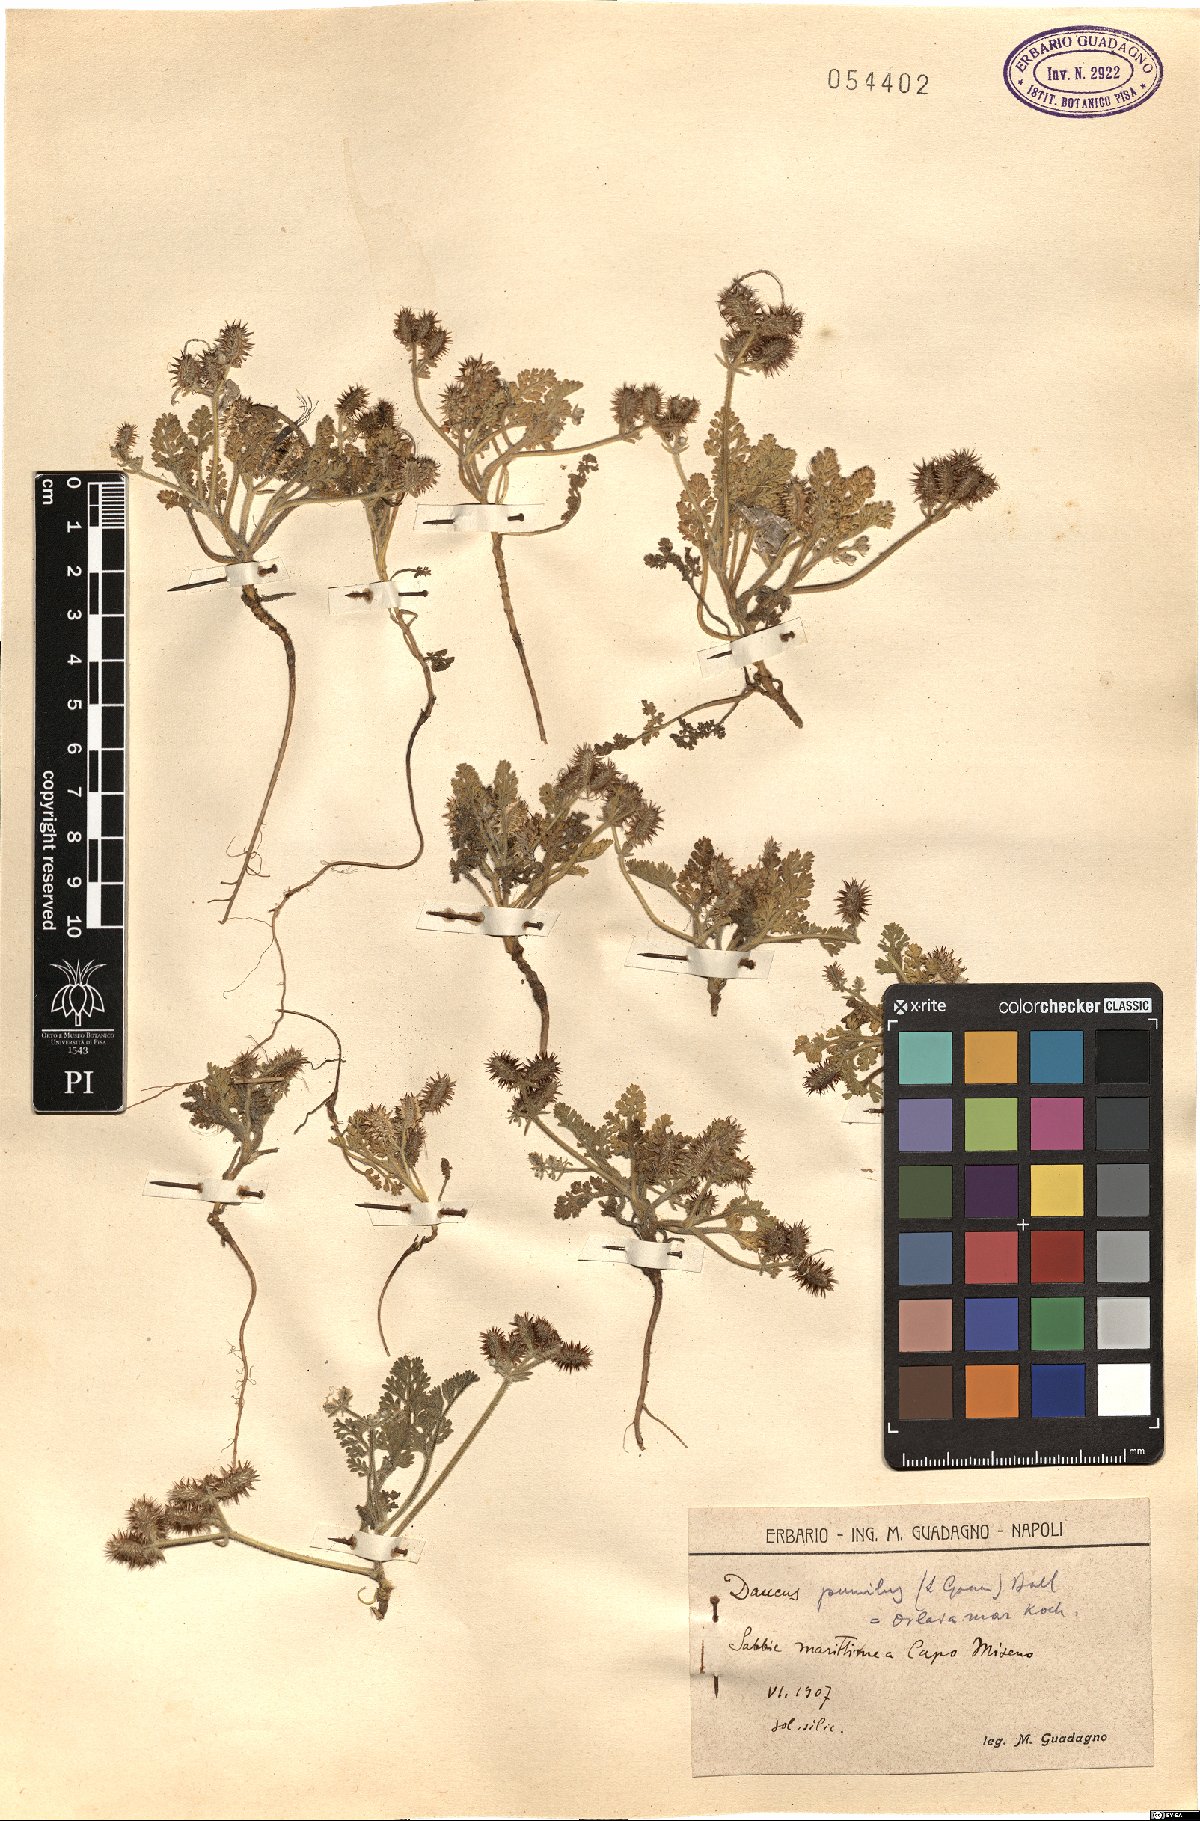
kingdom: Plantae
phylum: Tracheophyta
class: Magnoliopsida
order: Apiales
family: Apiaceae
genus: Daucus
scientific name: Daucus pumilus
